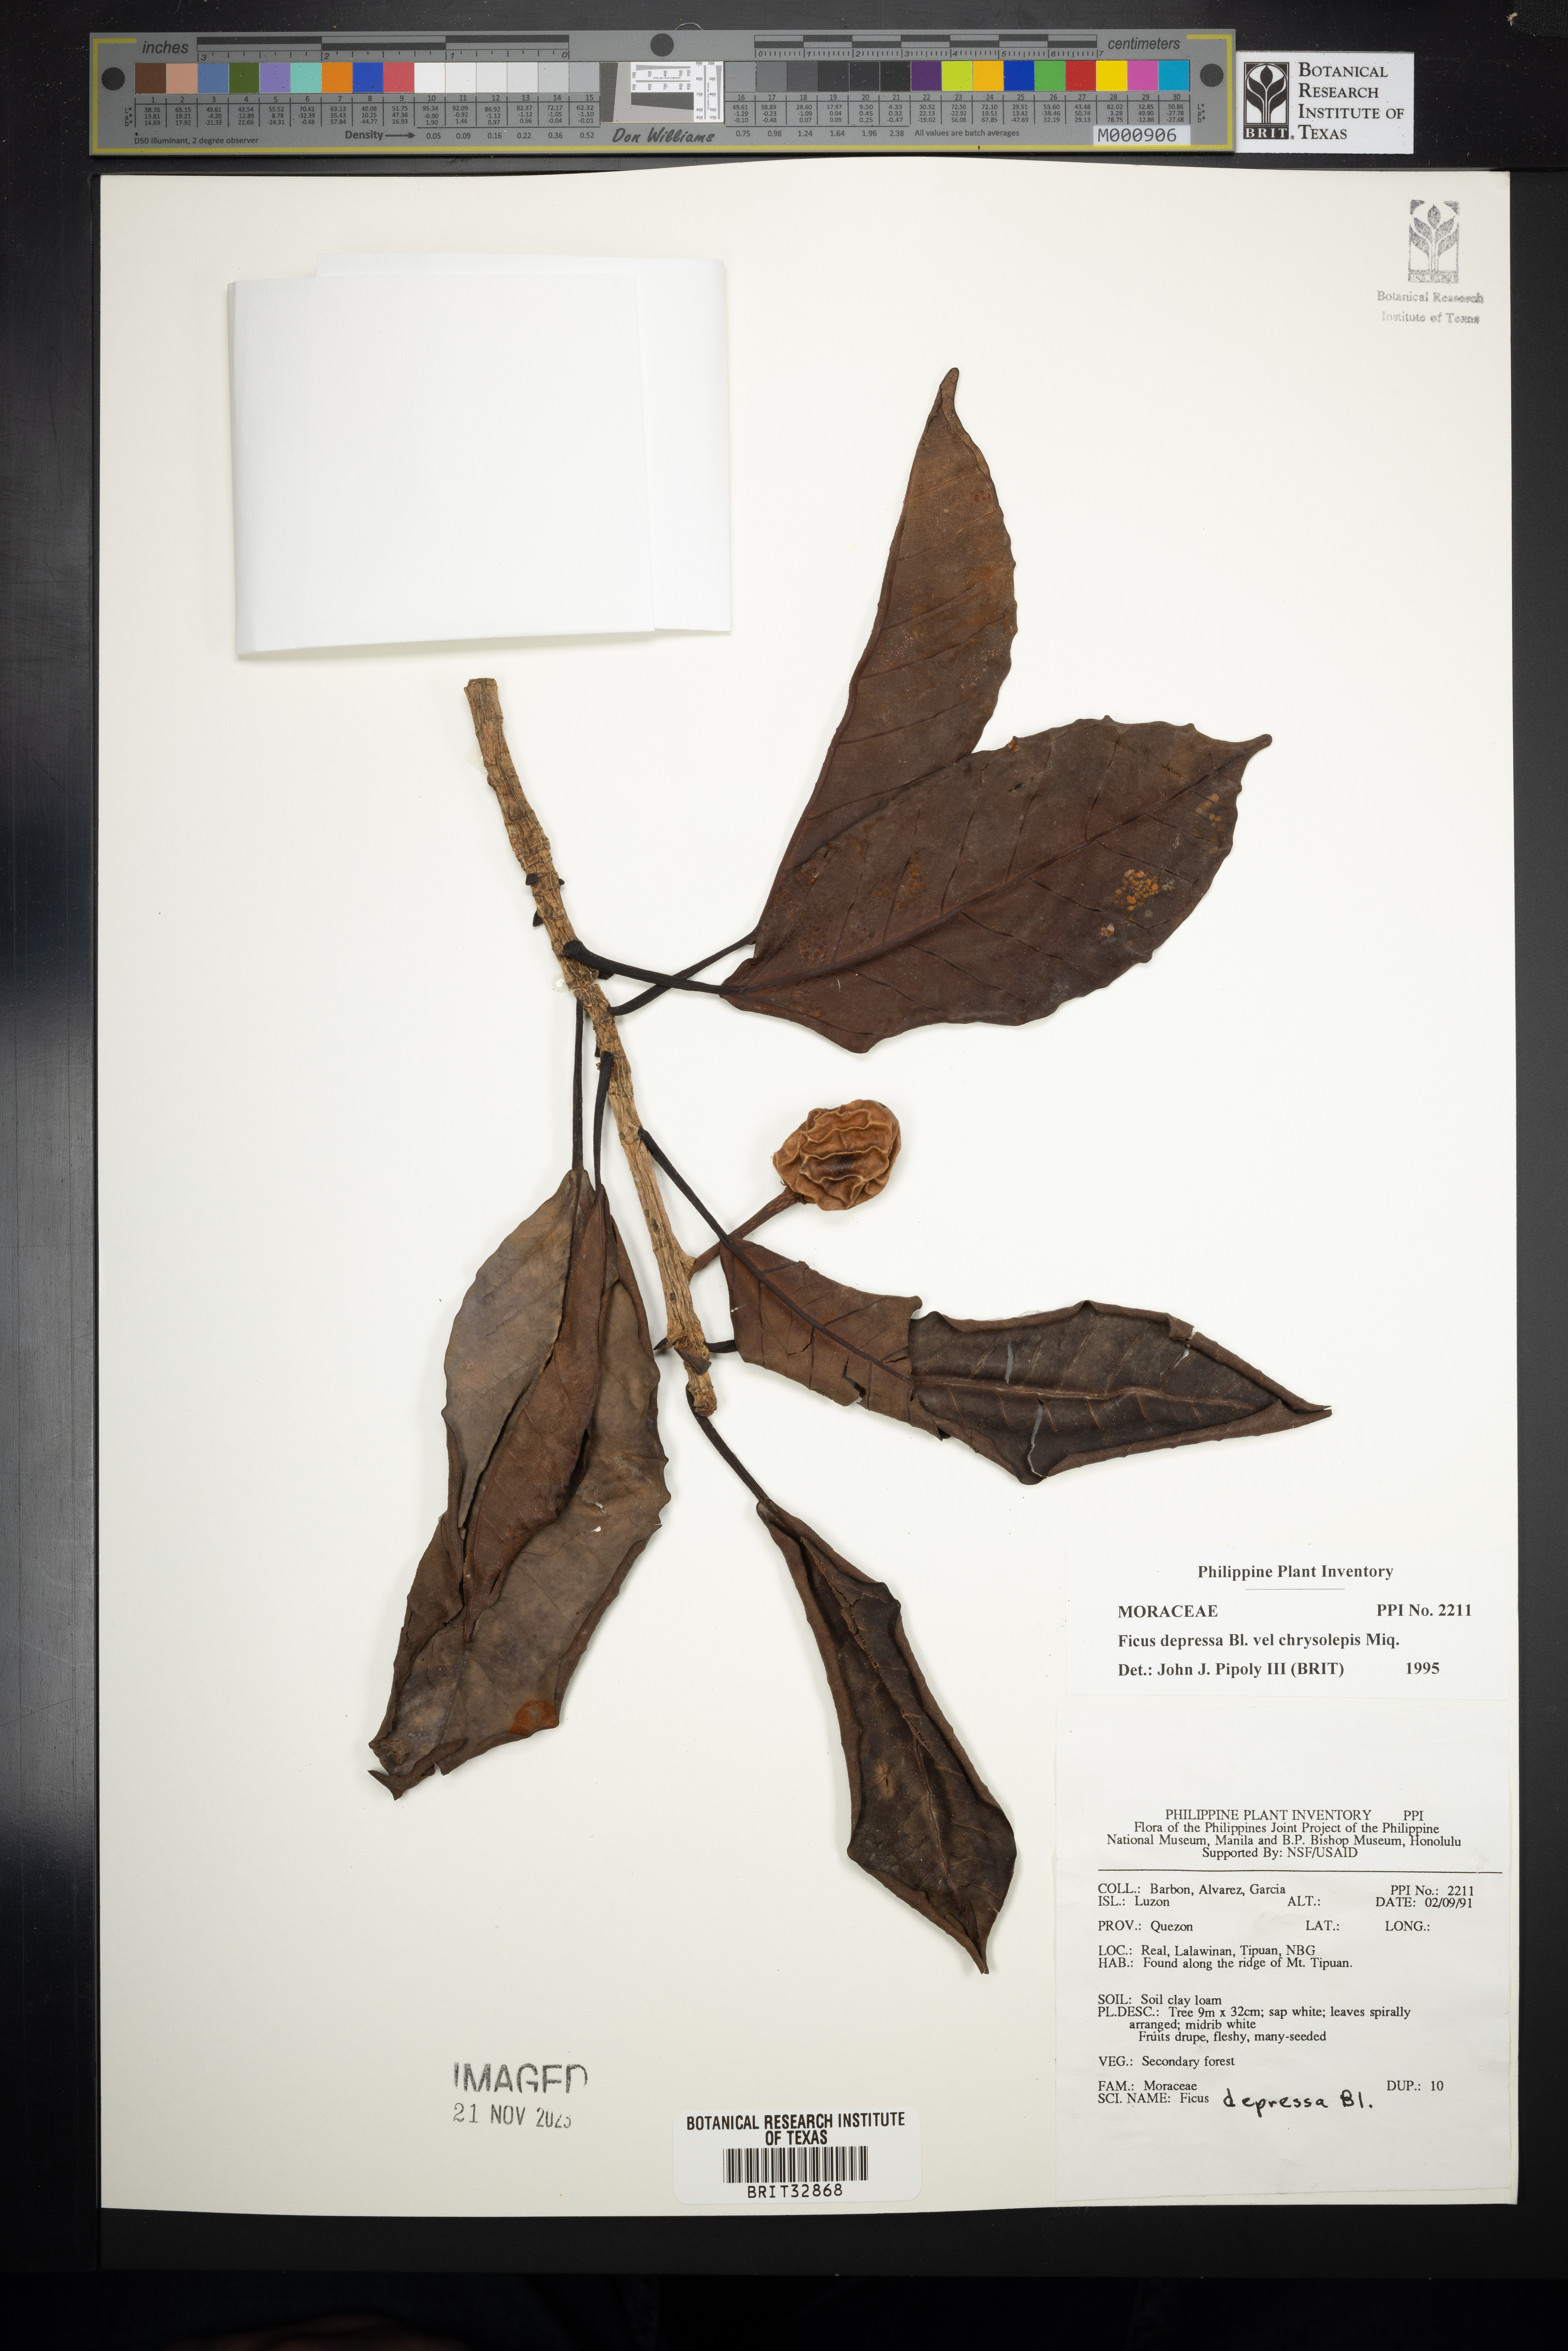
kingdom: Plantae
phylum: Tracheophyta
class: Magnoliopsida
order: Rosales
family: Moraceae
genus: Ficus
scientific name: Ficus depressa
